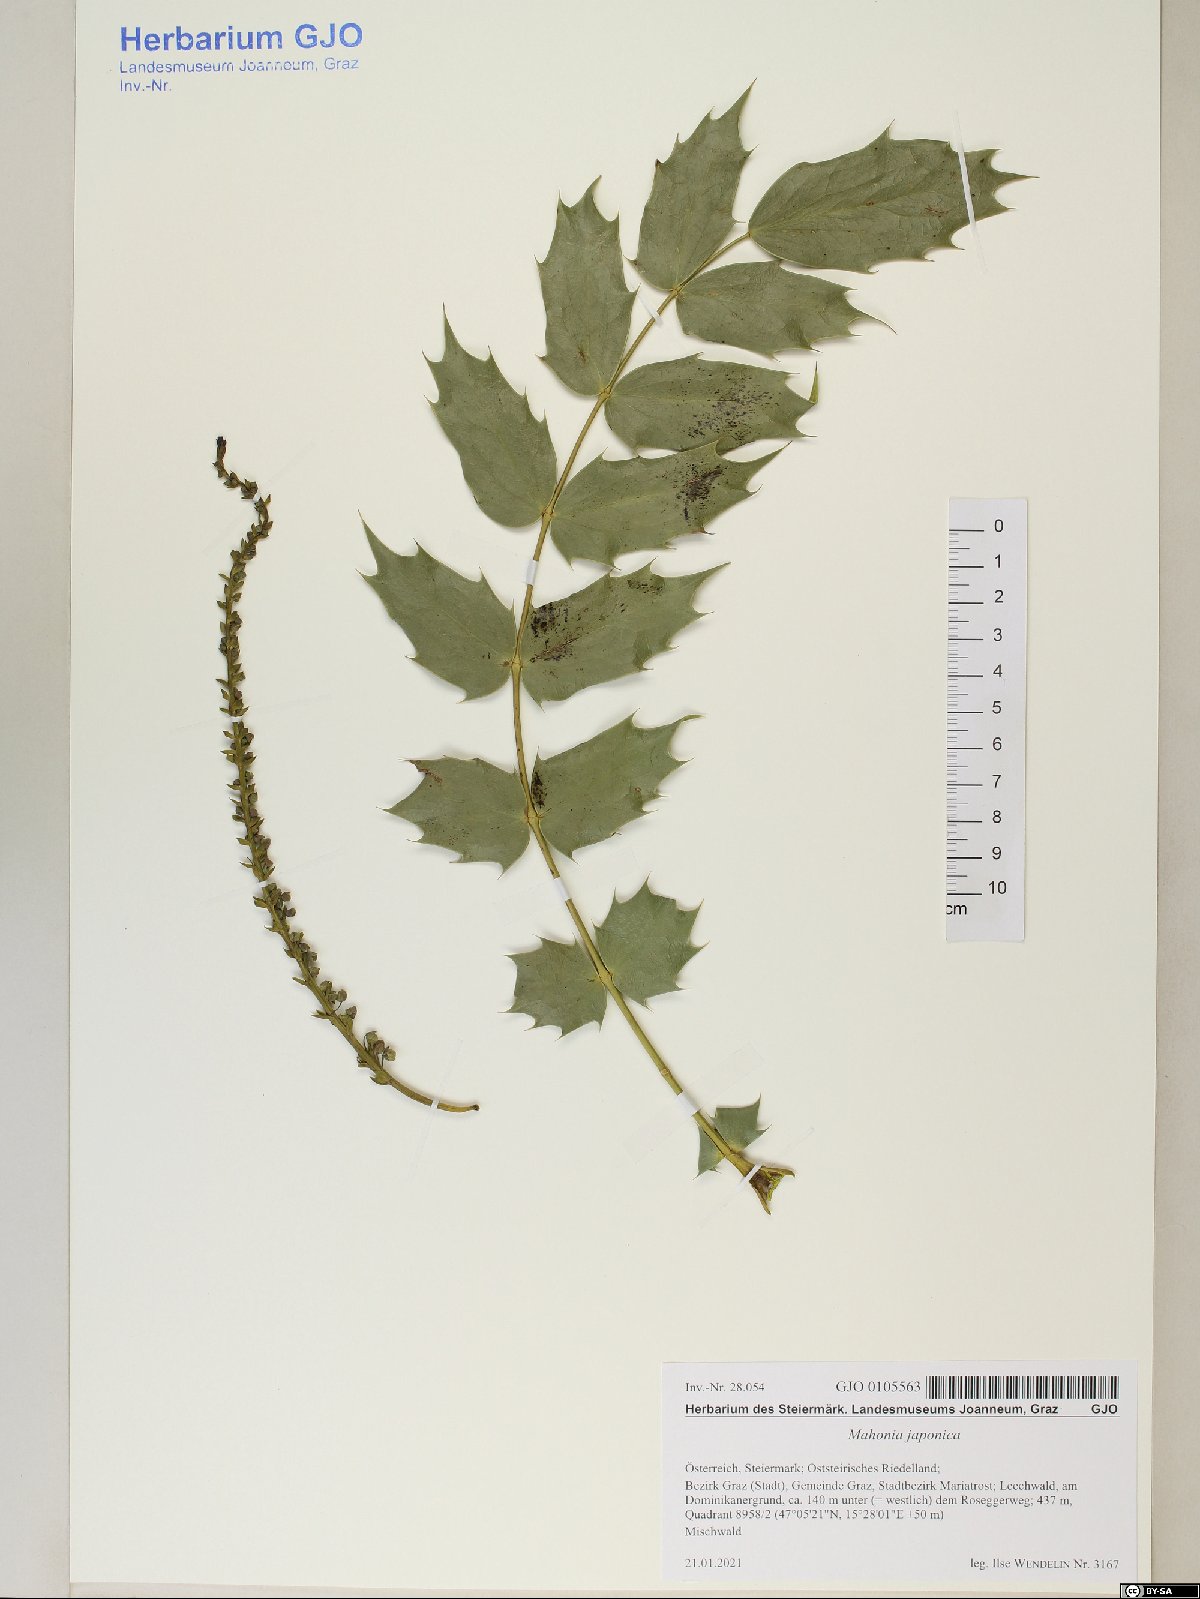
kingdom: Plantae
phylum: Tracheophyta
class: Magnoliopsida
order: Ranunculales
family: Berberidaceae
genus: Mahonia
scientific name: Mahonia japonica
